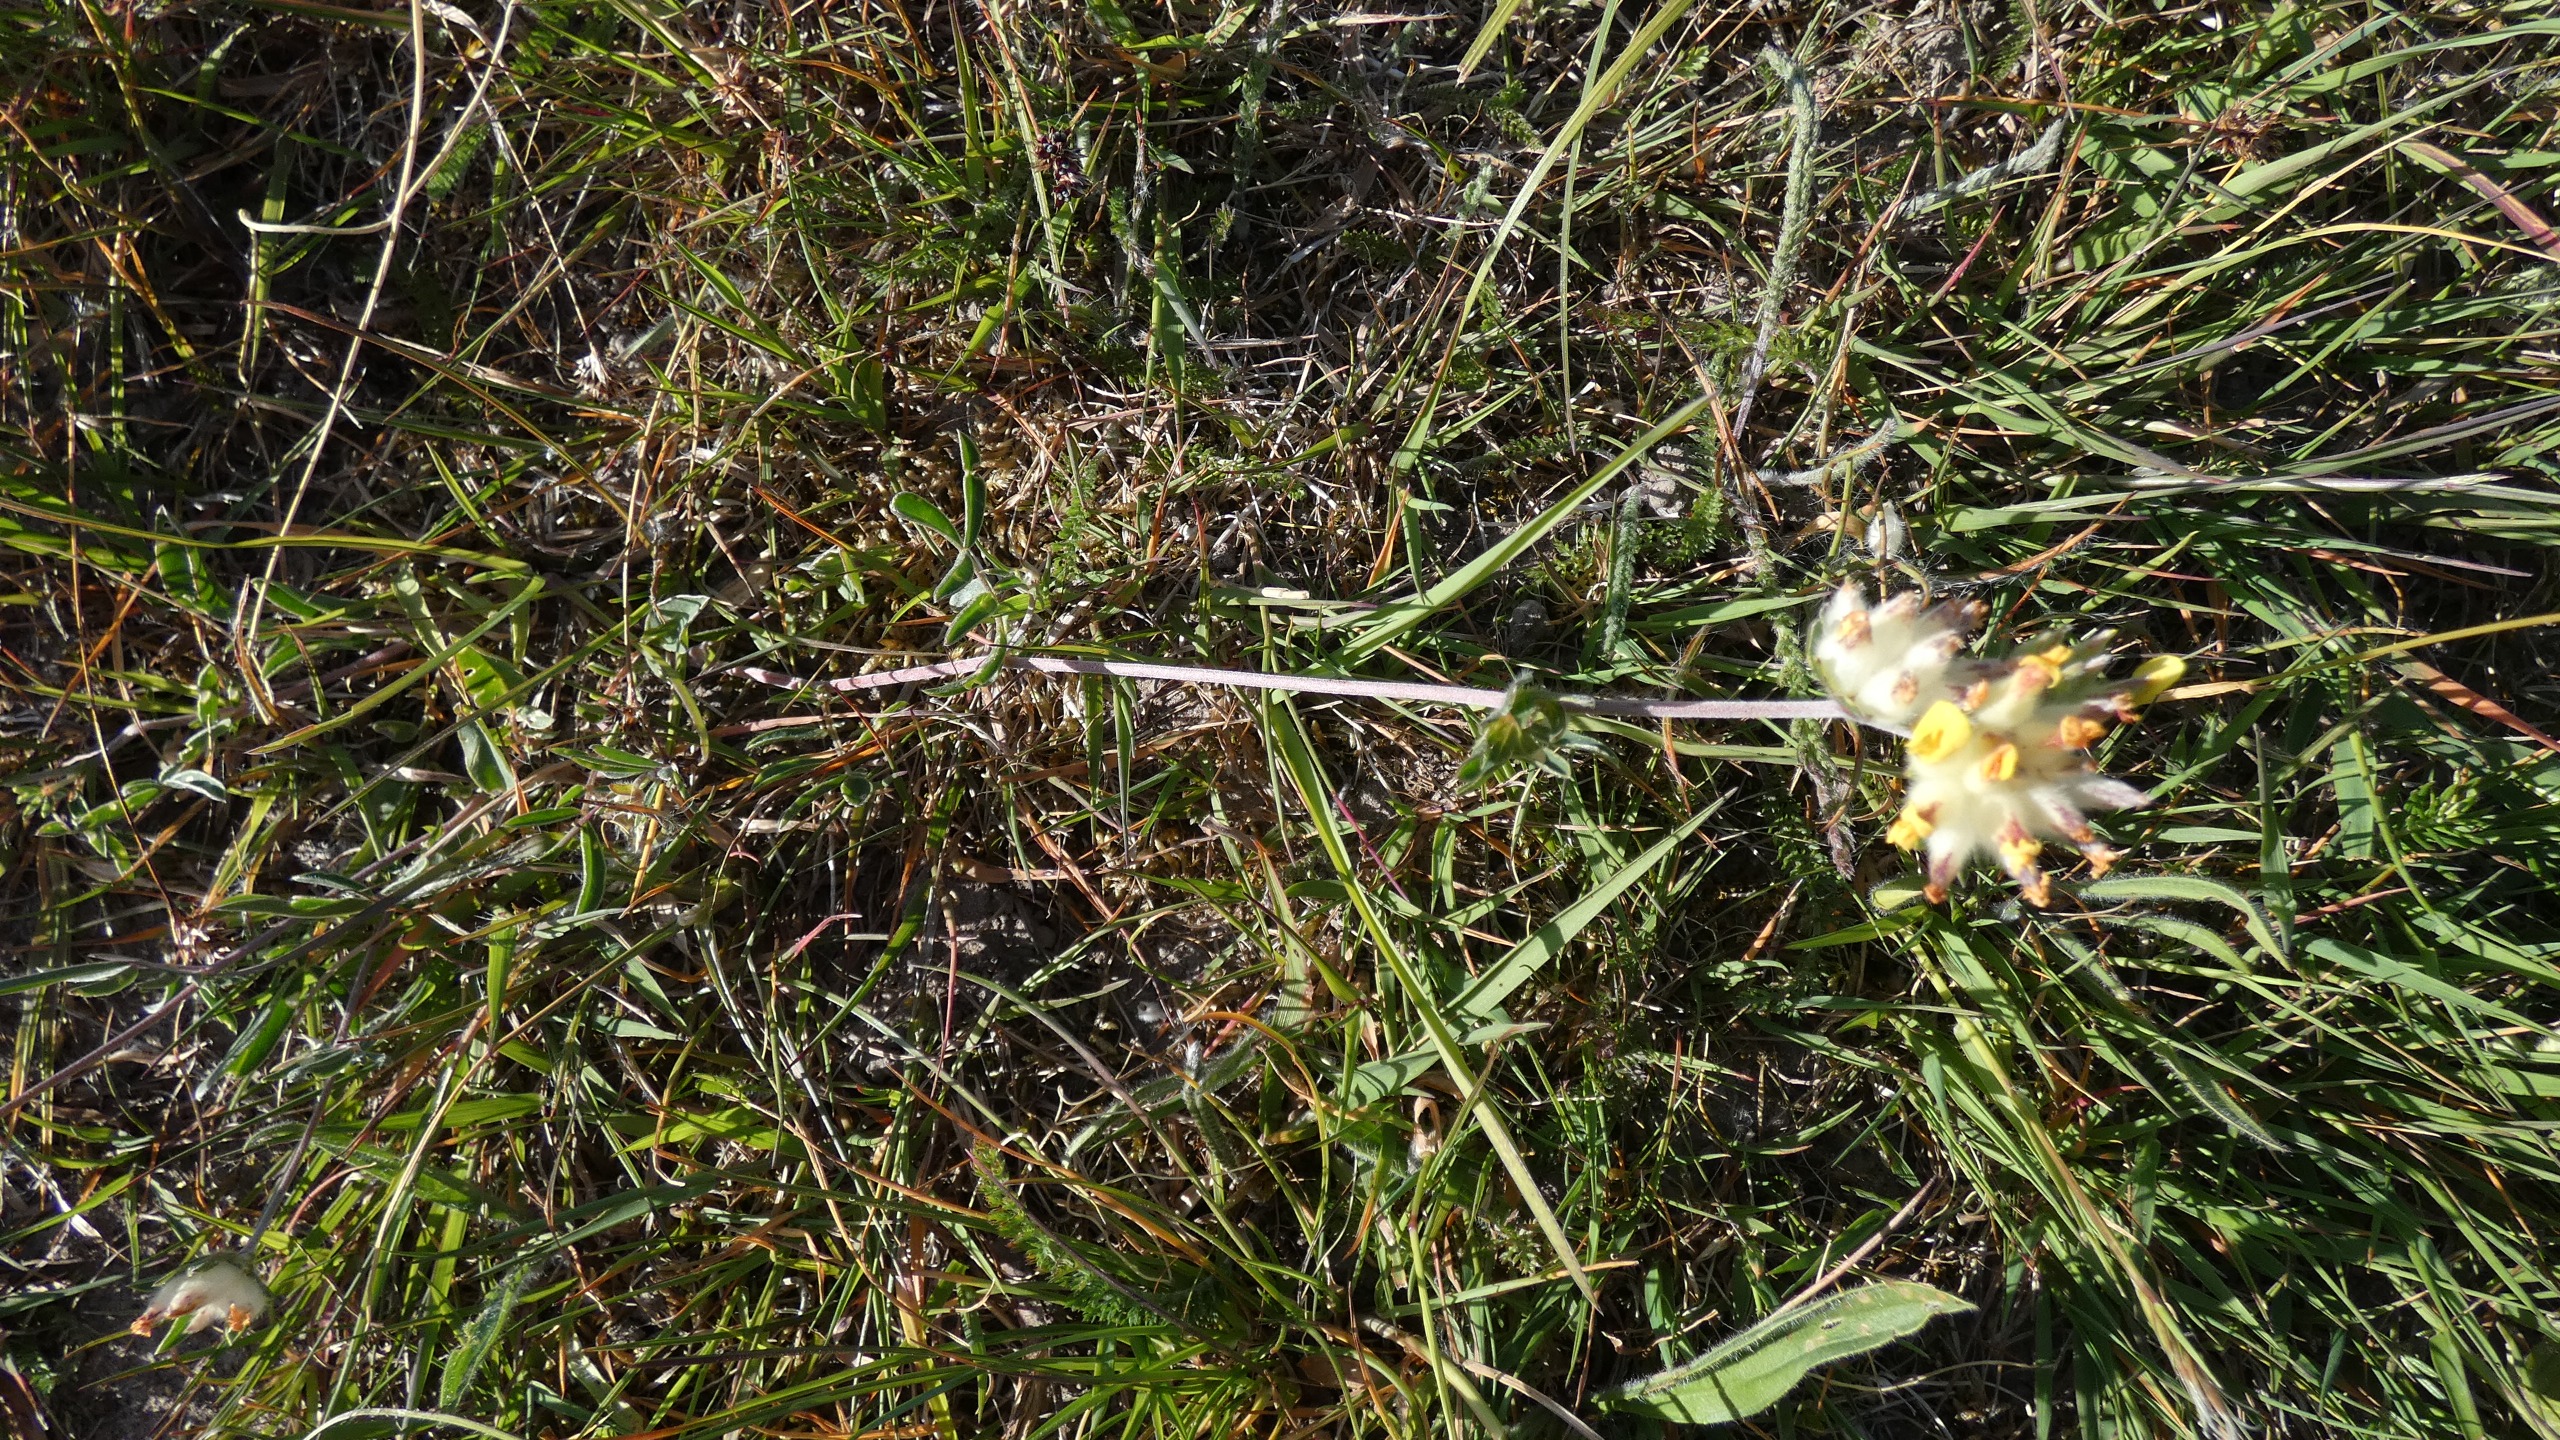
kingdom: Plantae
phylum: Tracheophyta
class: Magnoliopsida
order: Fabales
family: Fabaceae
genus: Anthyllis
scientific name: Anthyllis vulneraria
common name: Rundbælg
